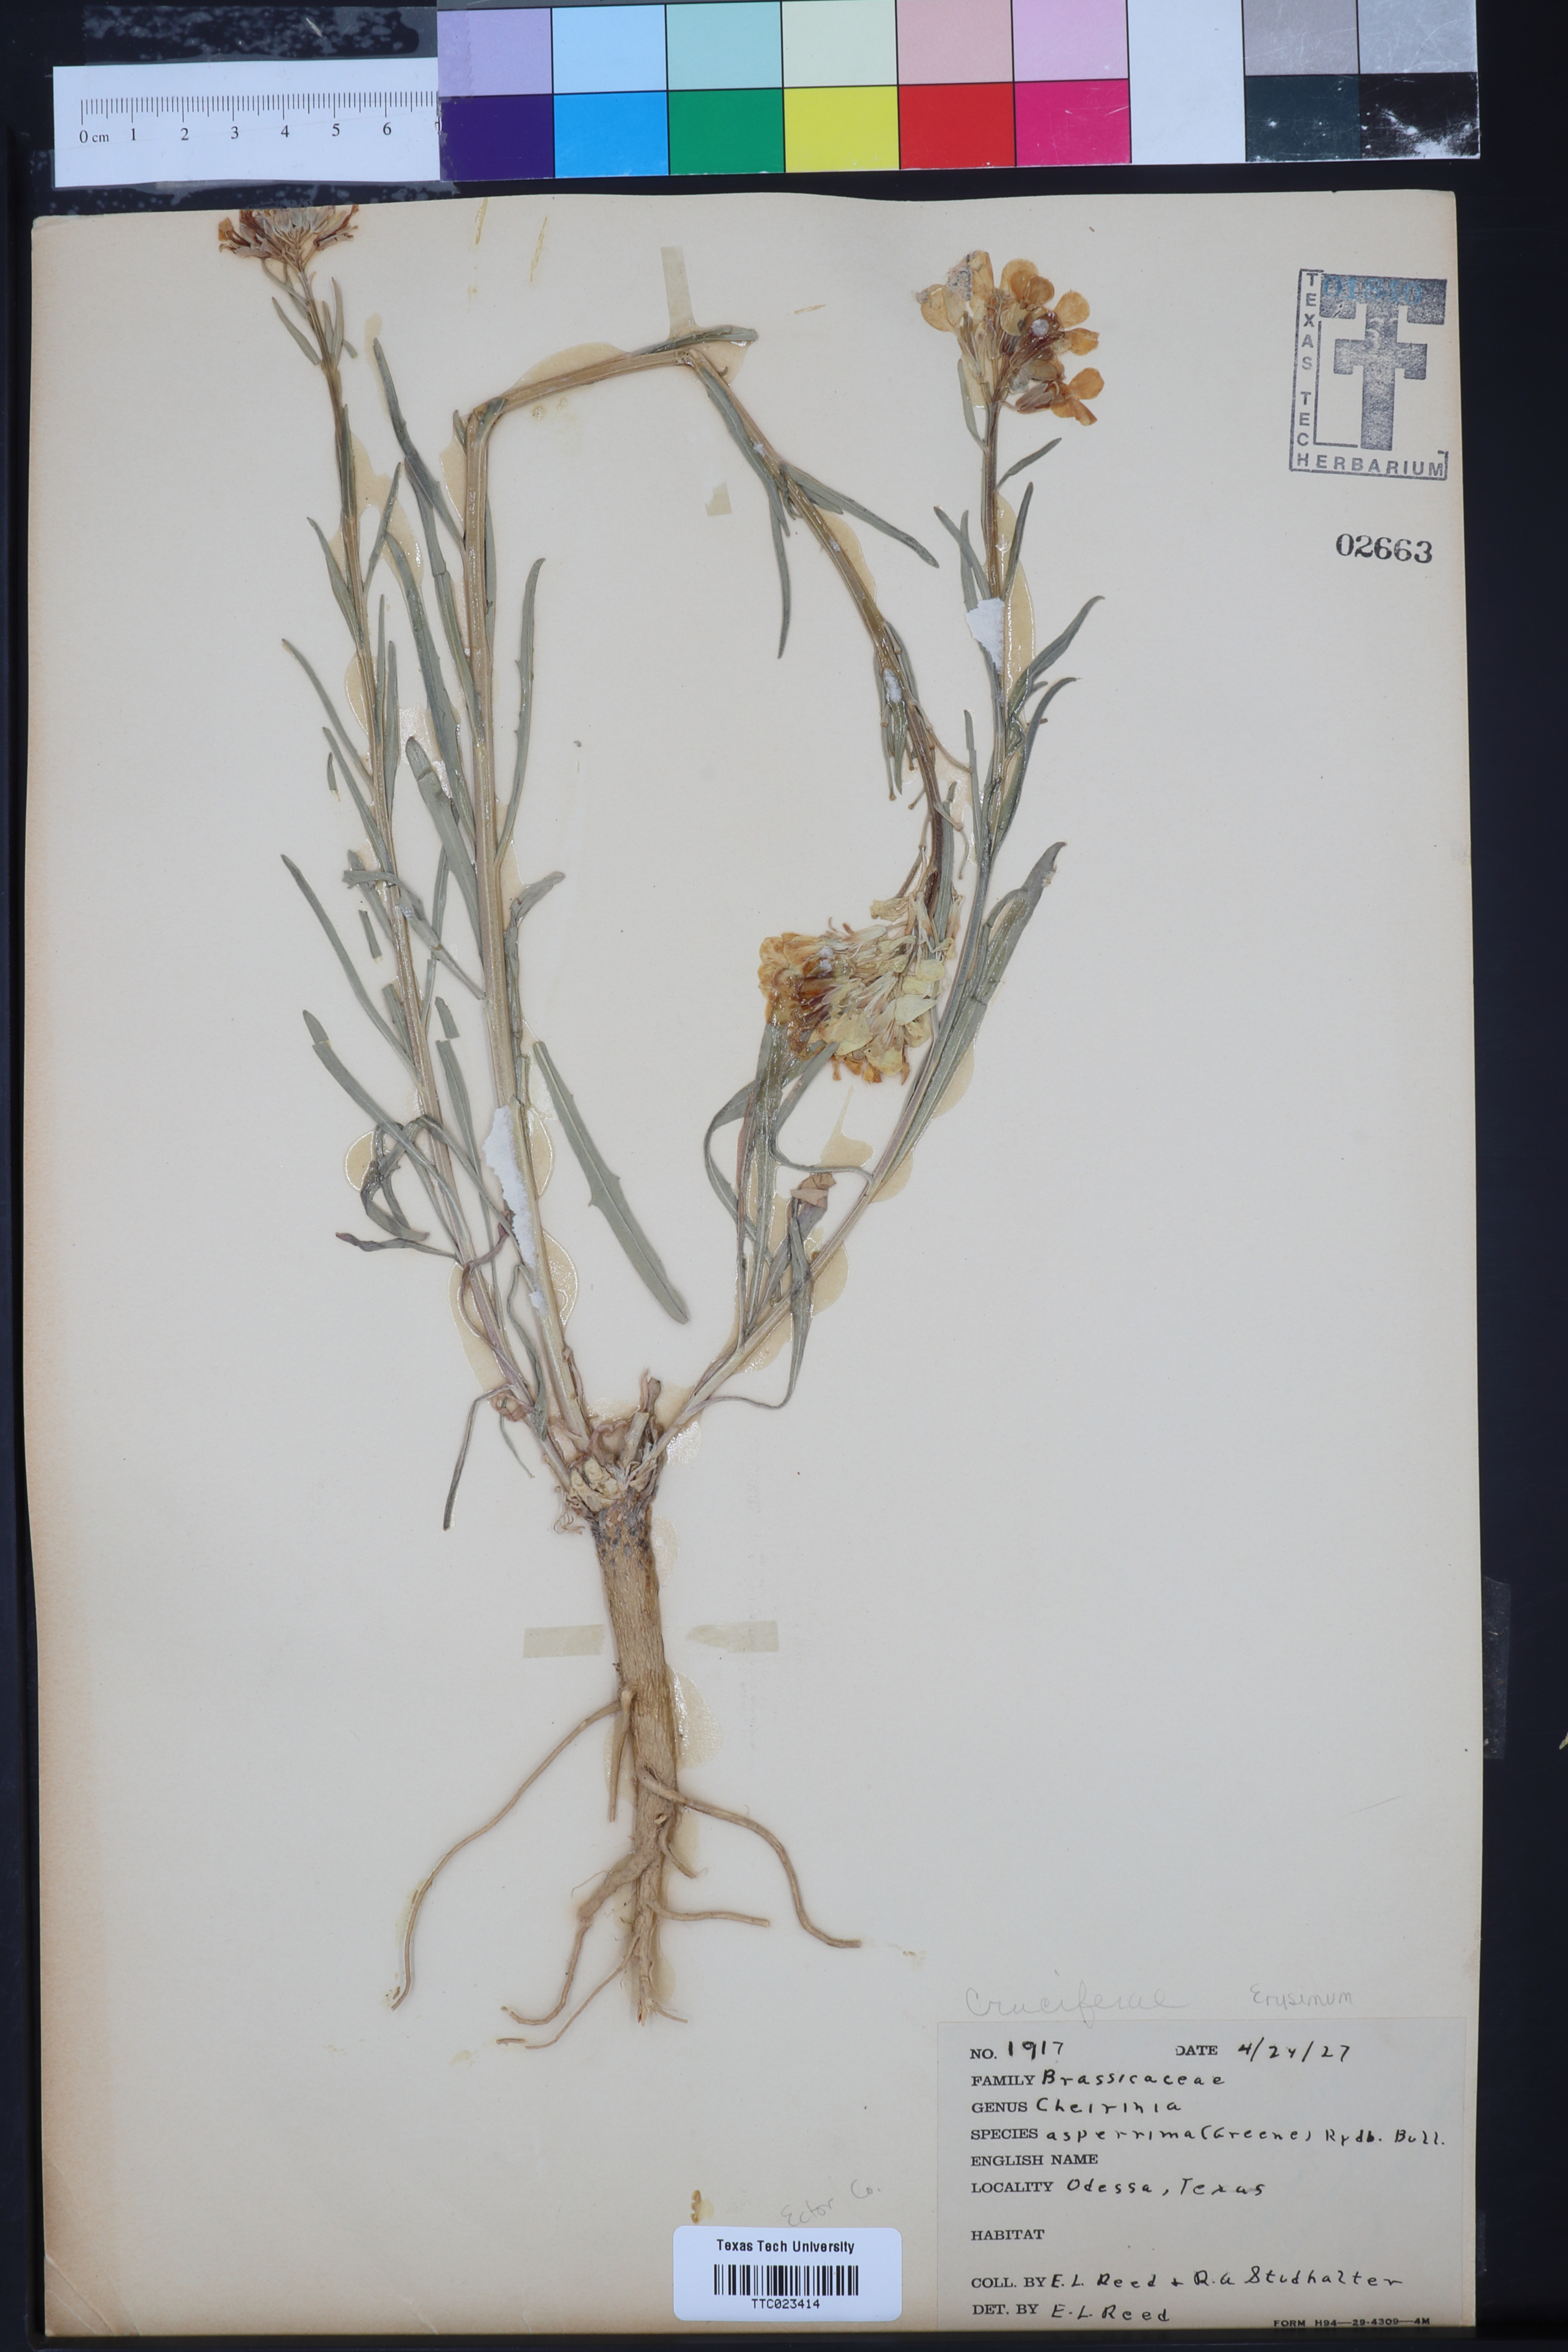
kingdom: Plantae
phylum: Tracheophyta
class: Magnoliopsida
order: Brassicales
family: Brassicaceae
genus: Erysimum
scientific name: Erysimum
